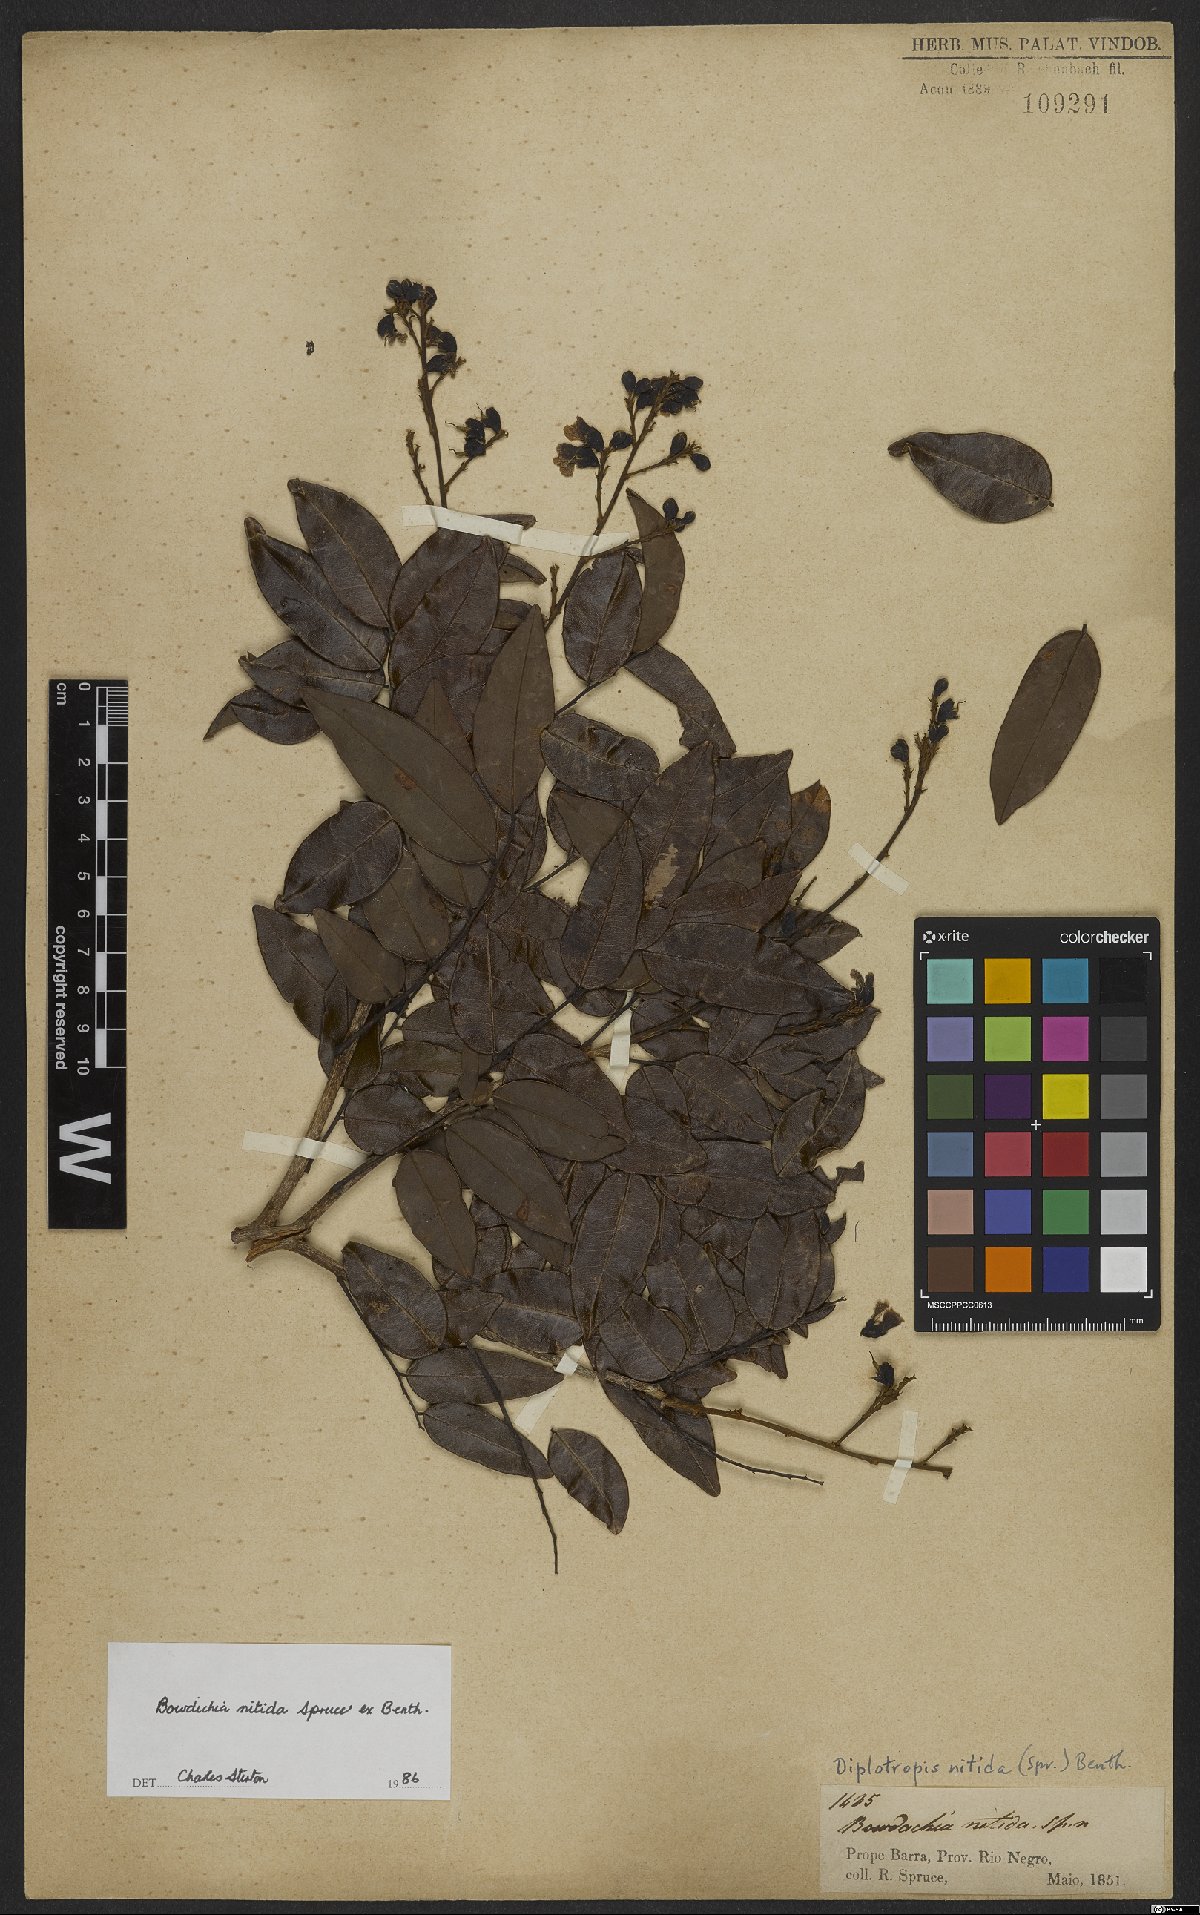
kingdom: Plantae
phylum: Tracheophyta
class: Magnoliopsida
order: Fabales
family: Fabaceae
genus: Bowdichia
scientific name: Bowdichia nitida
